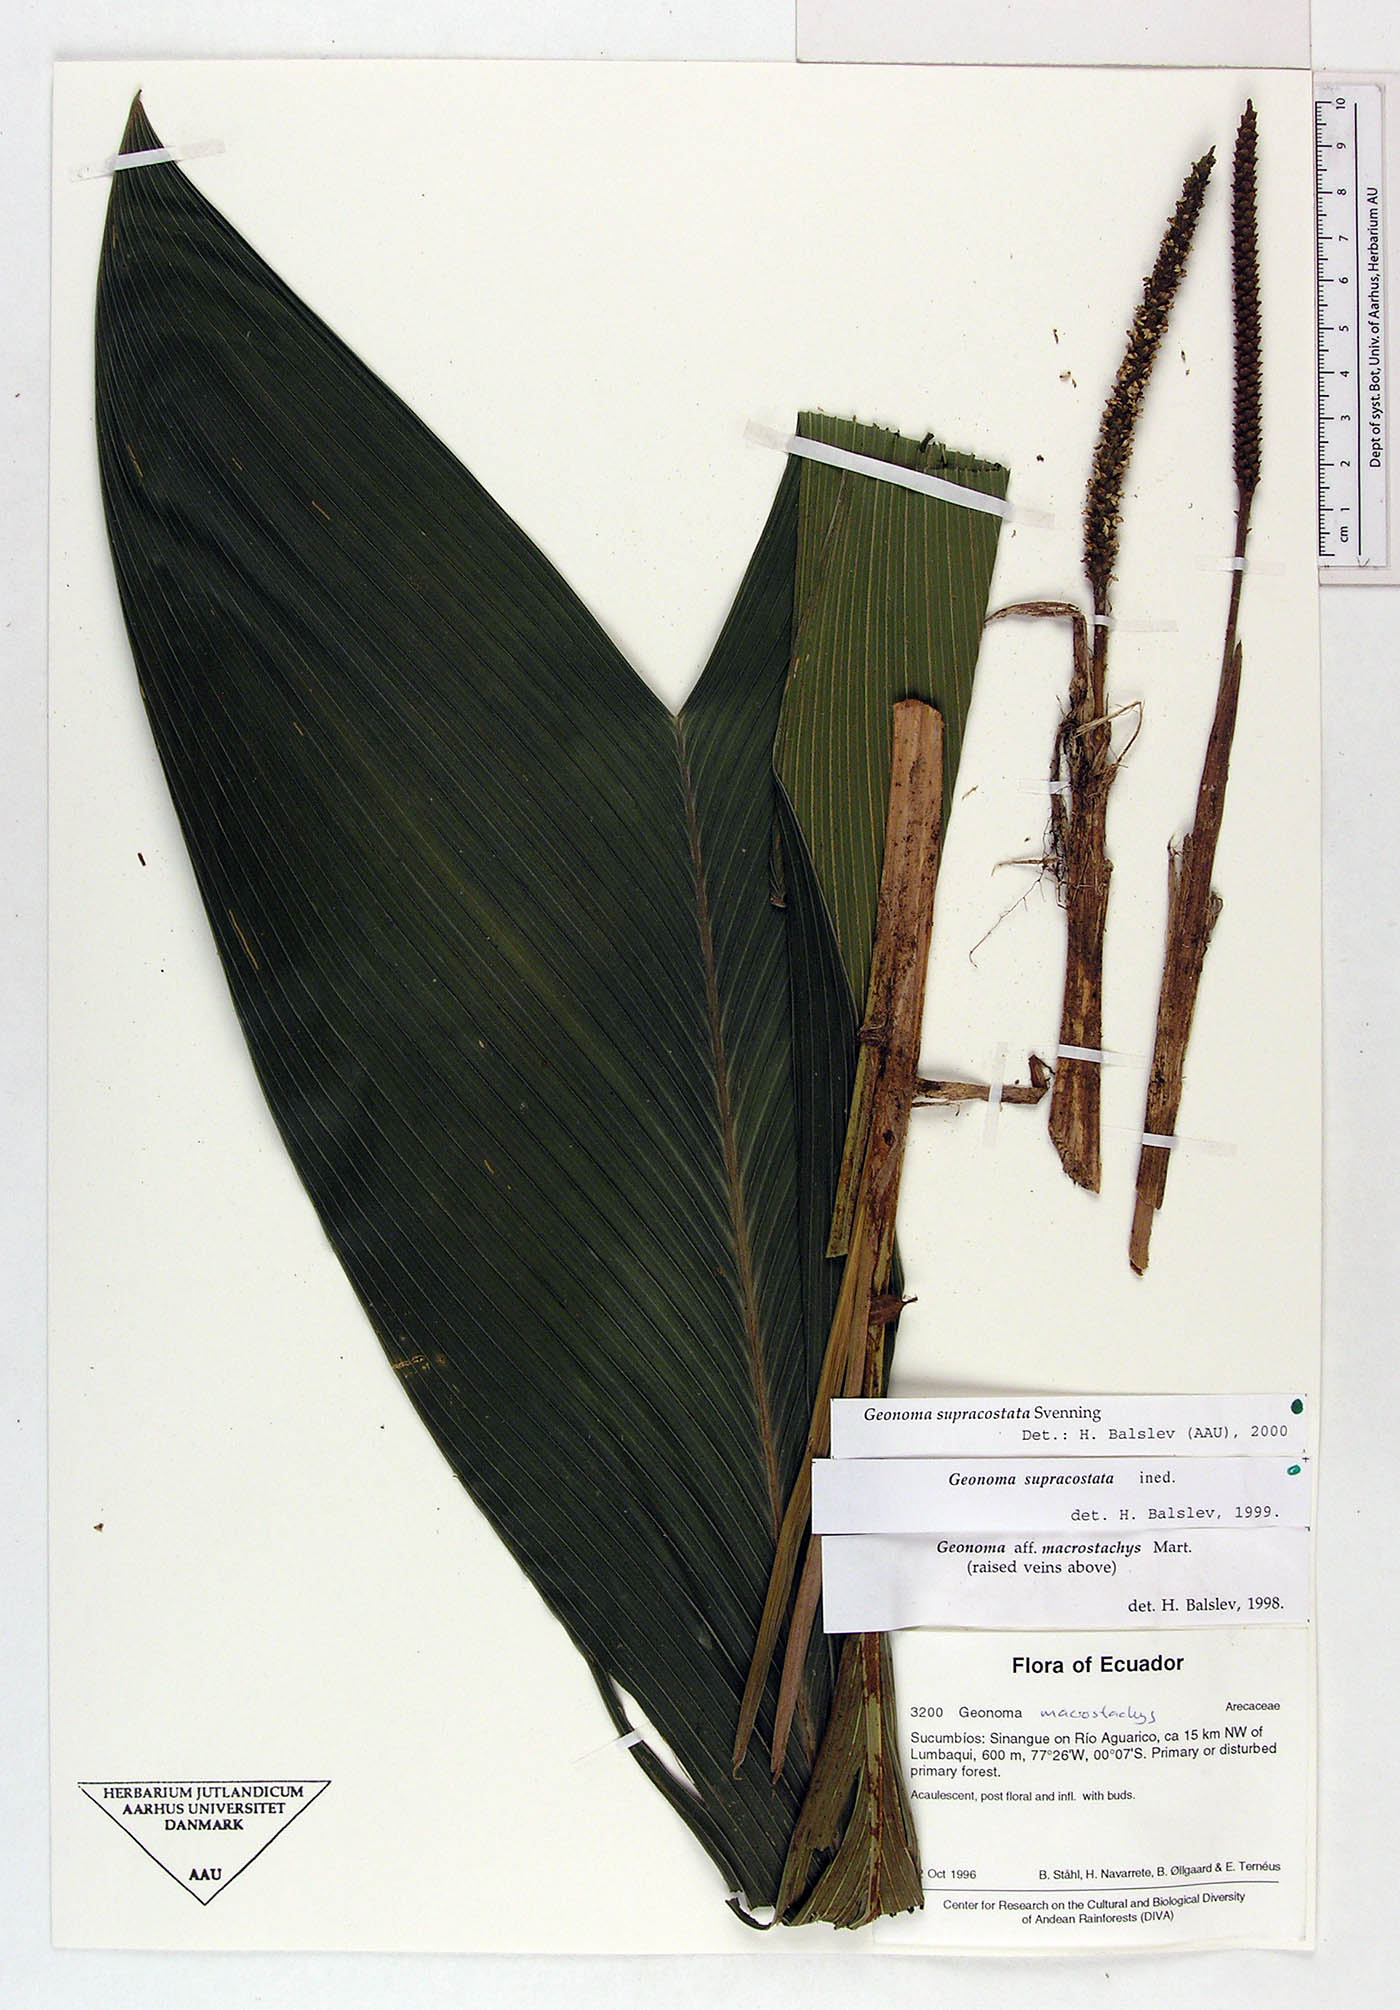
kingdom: Plantae
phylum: Tracheophyta
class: Liliopsida
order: Arecales
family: Arecaceae
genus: Geonoma
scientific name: Geonoma macrostachys
